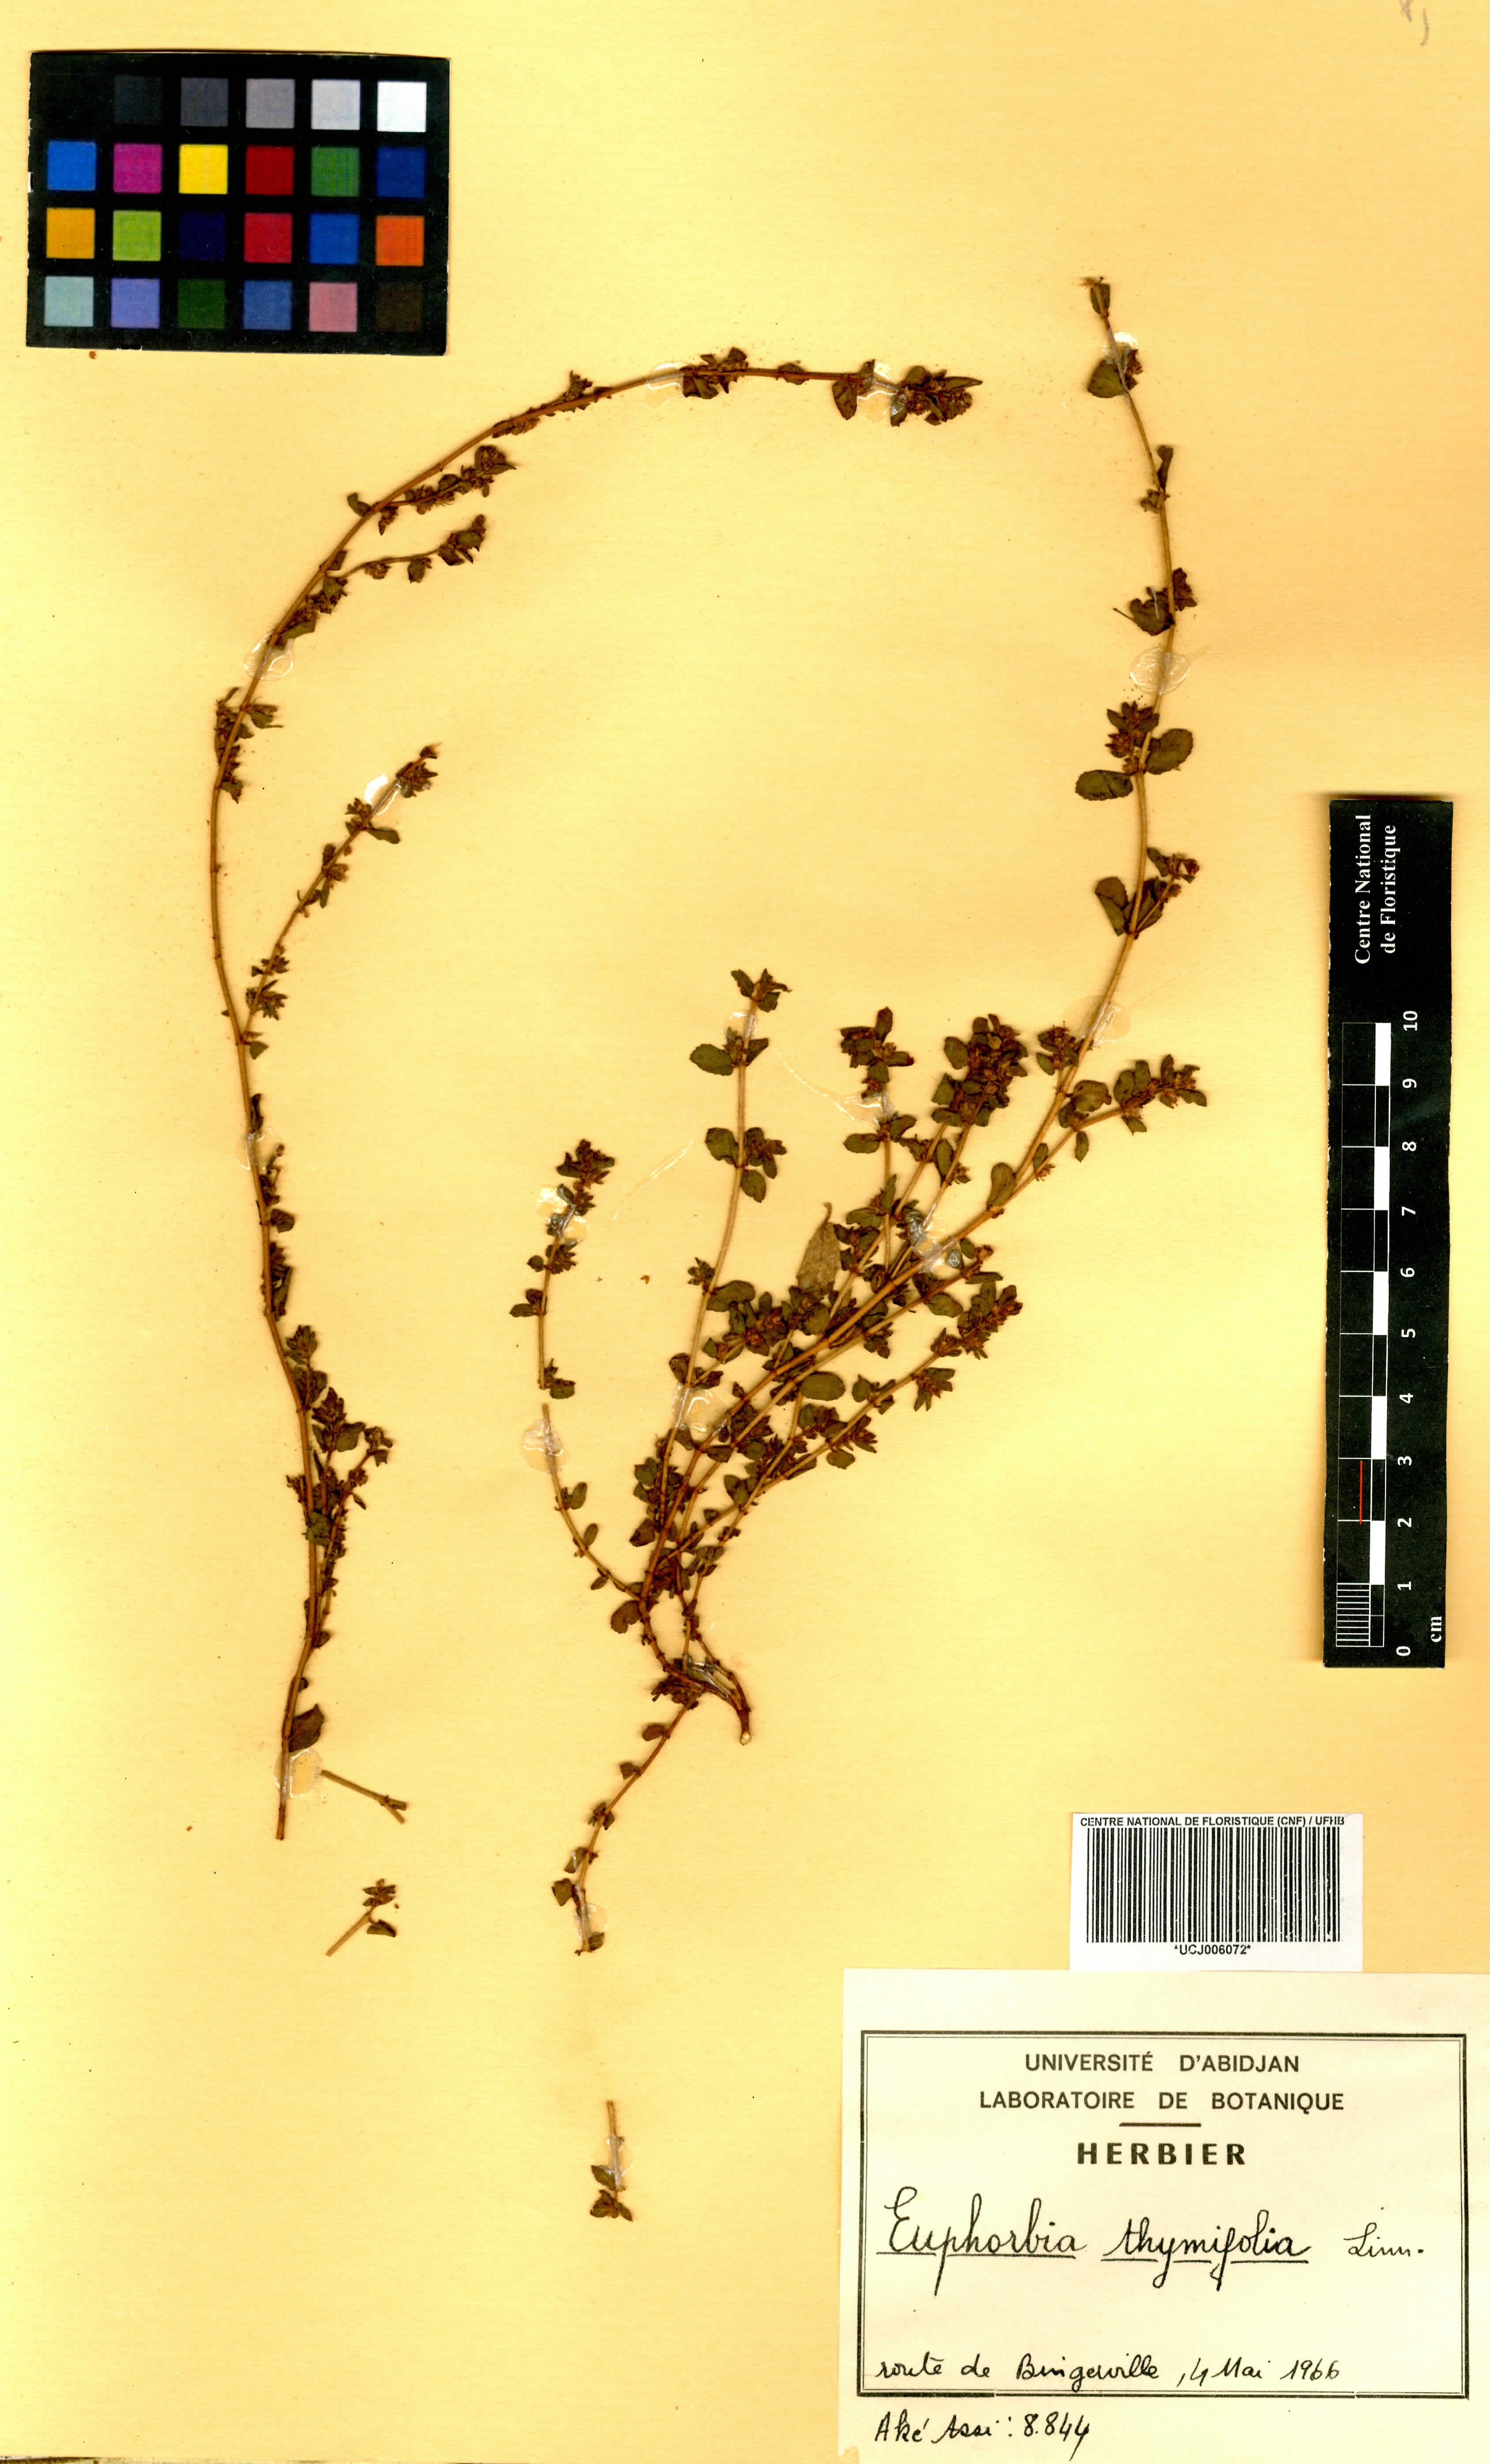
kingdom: Plantae
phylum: Tracheophyta
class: Magnoliopsida
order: Malpighiales
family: Euphorbiaceae
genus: Euphorbia
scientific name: Euphorbia thymifolia
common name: Gulf sandmat
